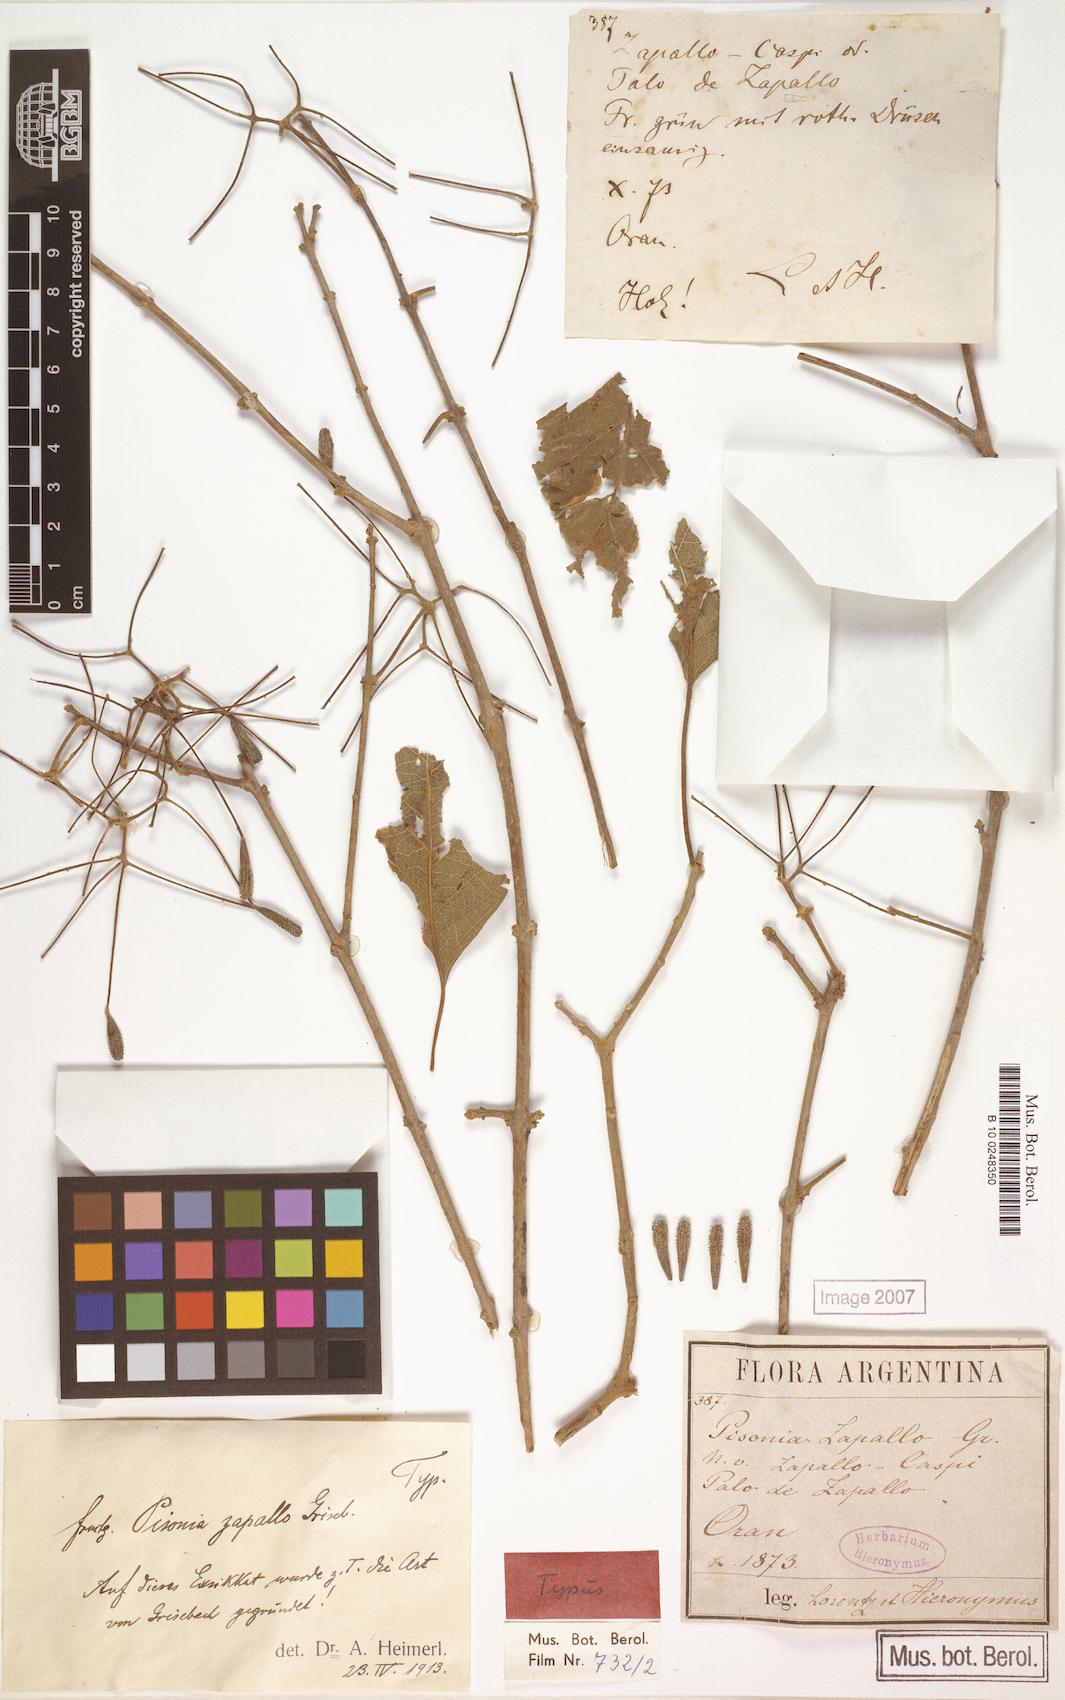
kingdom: Plantae
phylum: Tracheophyta
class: Magnoliopsida
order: Caryophyllales
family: Nyctaginaceae
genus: Pisonia
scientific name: Pisonia zapallo
